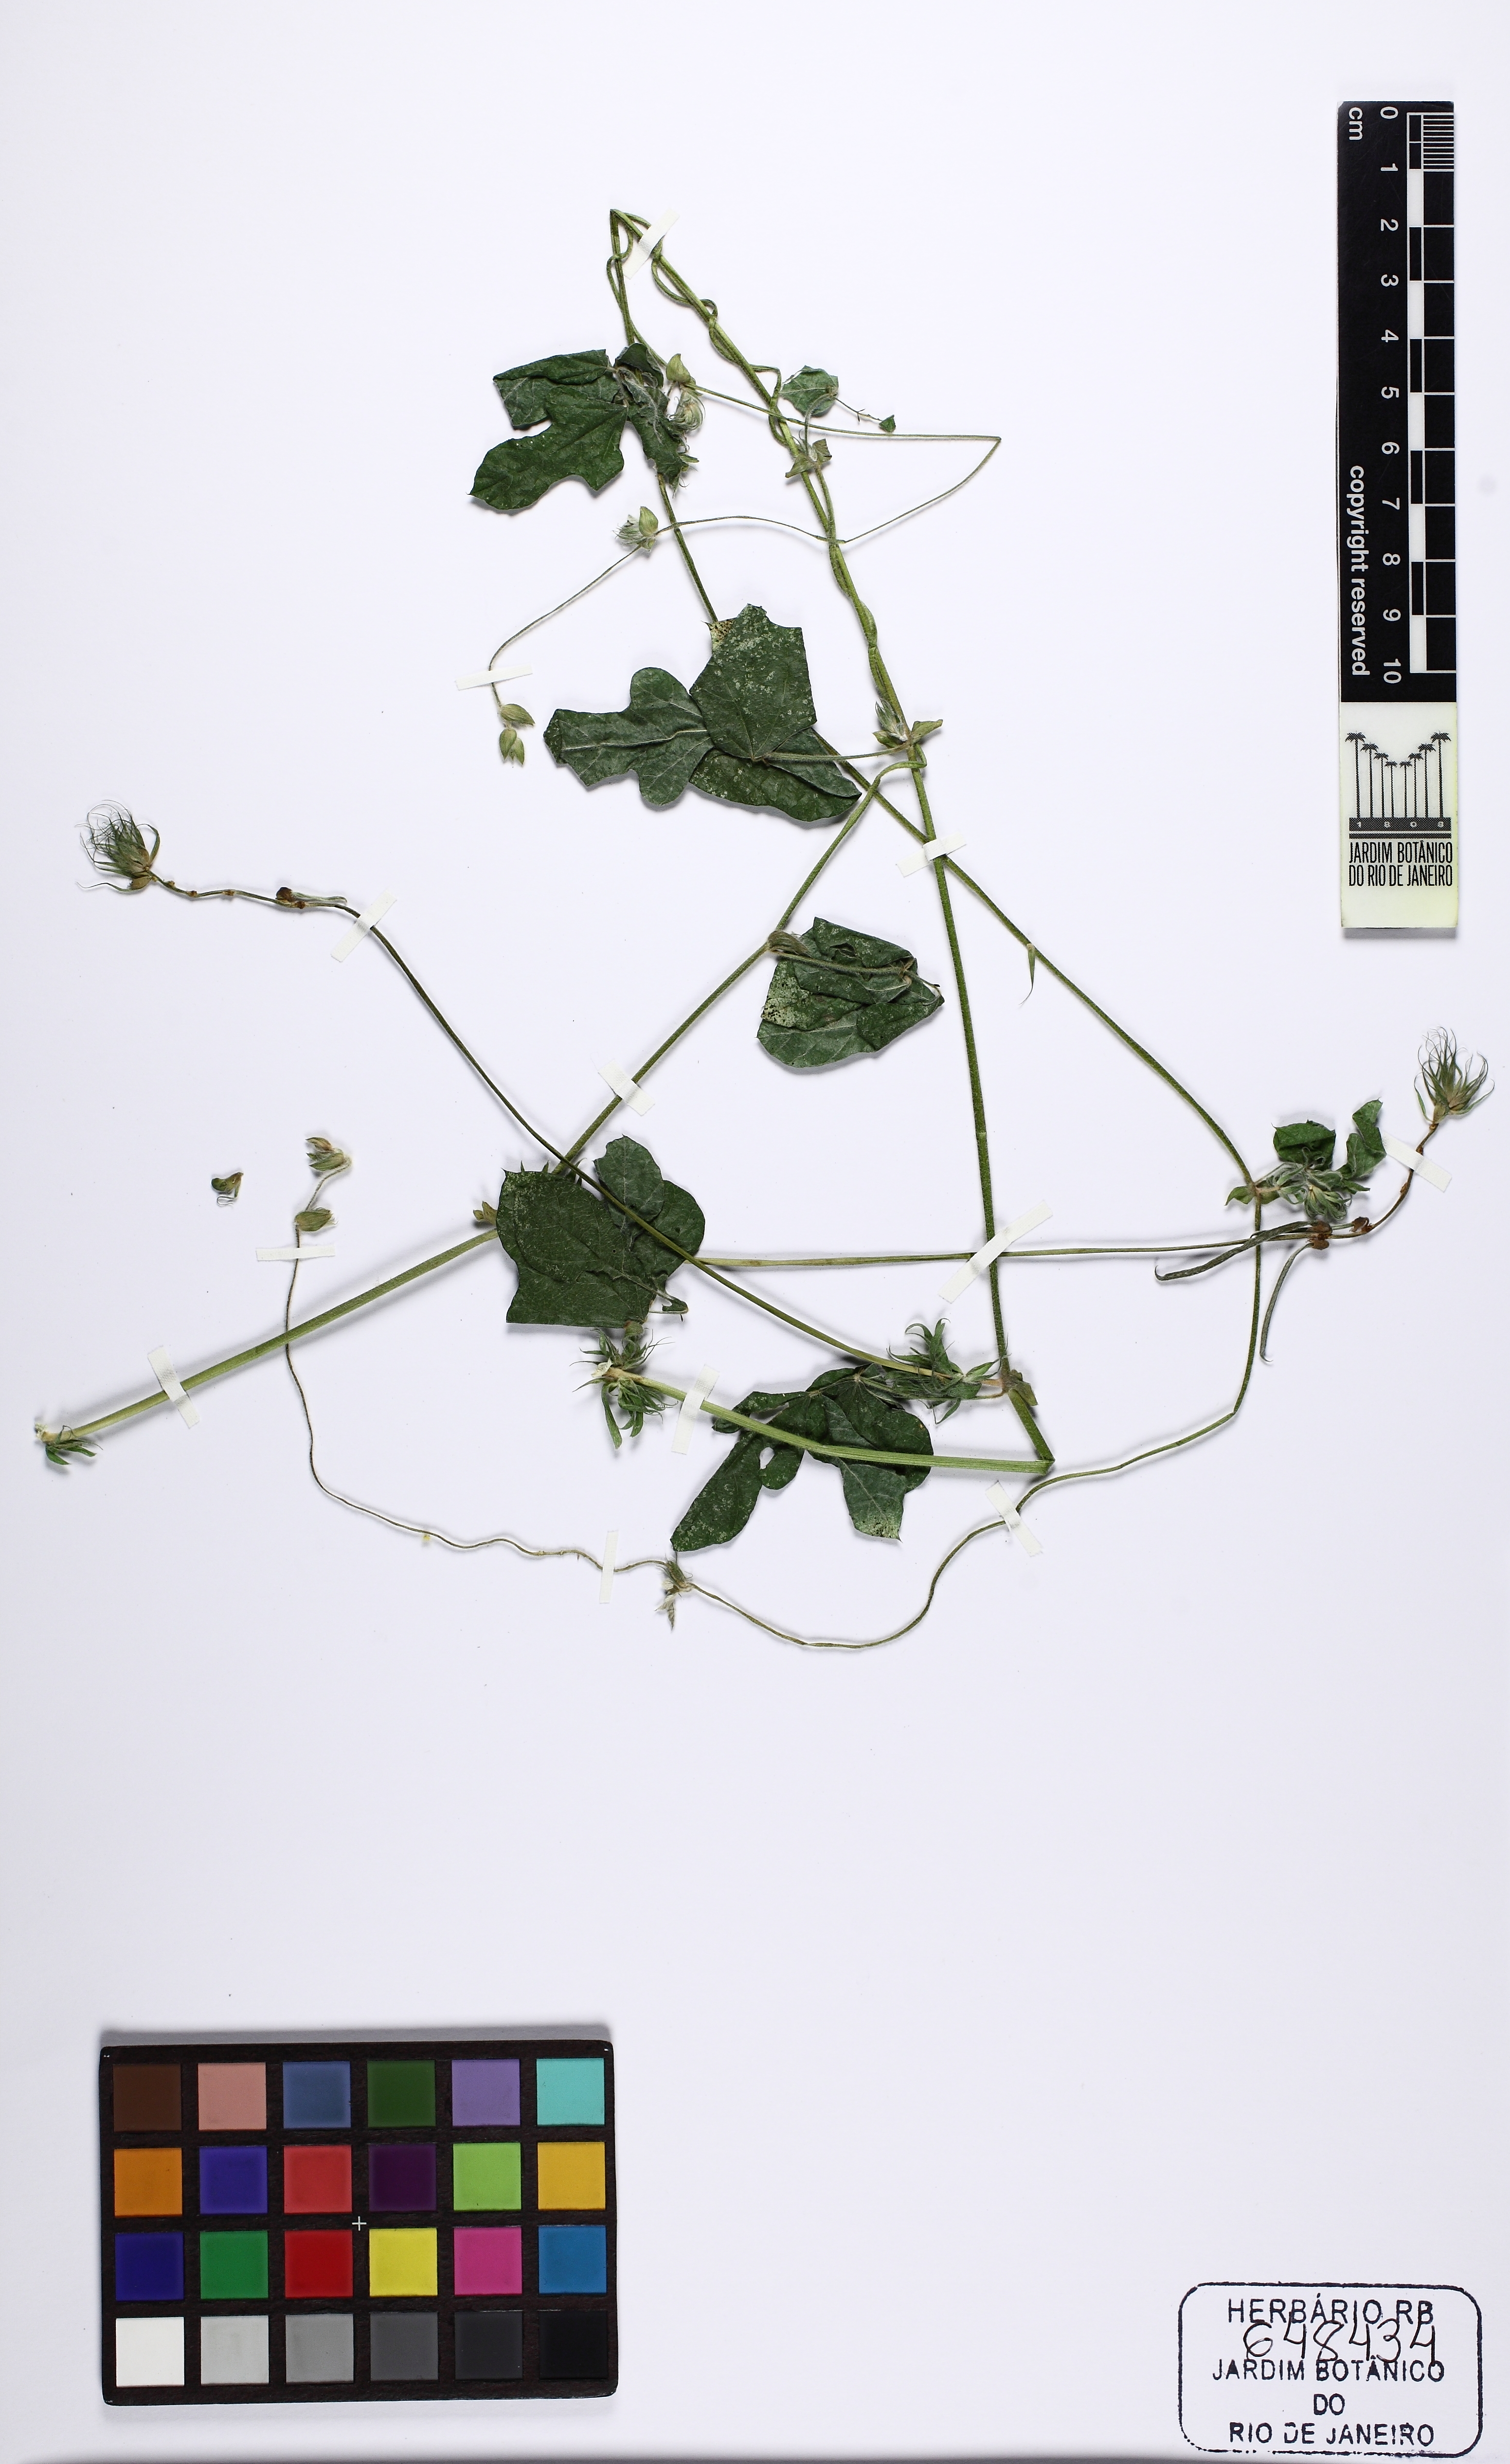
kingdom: Plantae
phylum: Tracheophyta
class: Magnoliopsida
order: Fabales
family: Fabaceae
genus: Macroptilium
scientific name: Macroptilium atropurpureum
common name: Purple bushbean
